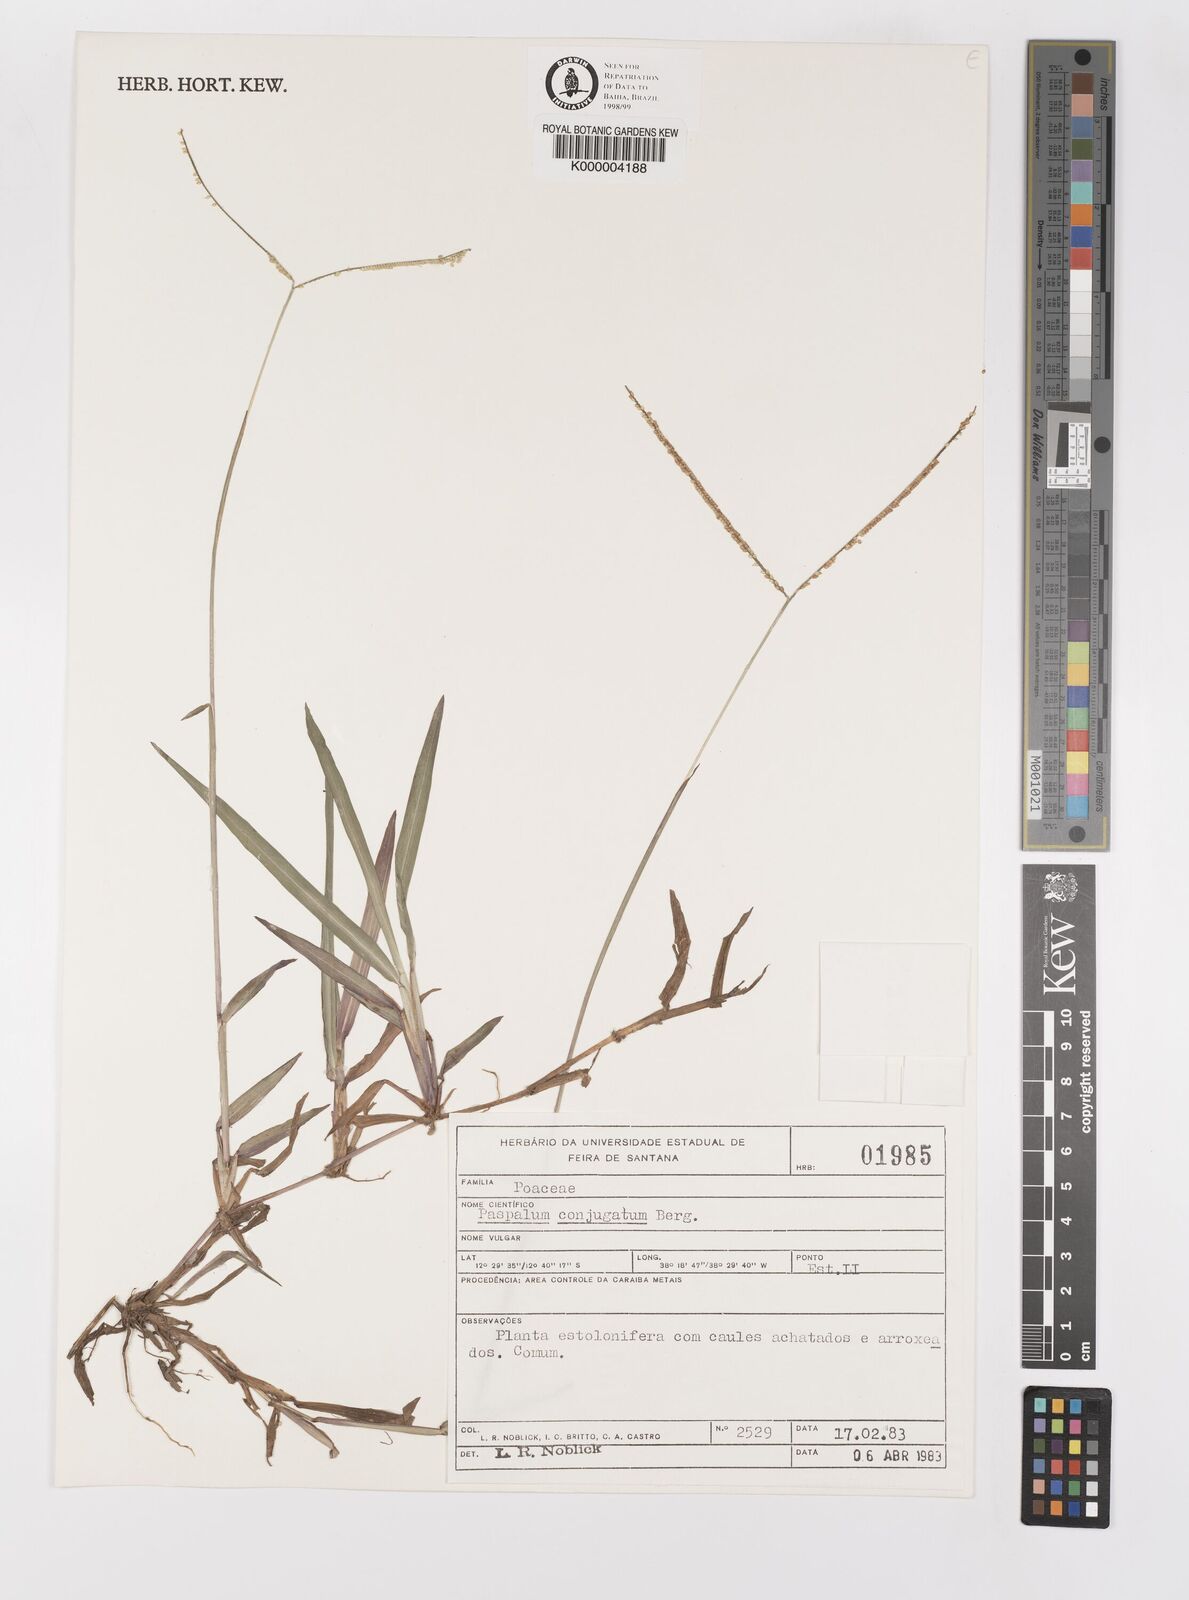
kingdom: Plantae
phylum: Tracheophyta
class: Liliopsida
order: Poales
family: Poaceae
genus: Paspalum
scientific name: Paspalum conjugatum
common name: Hilograss
